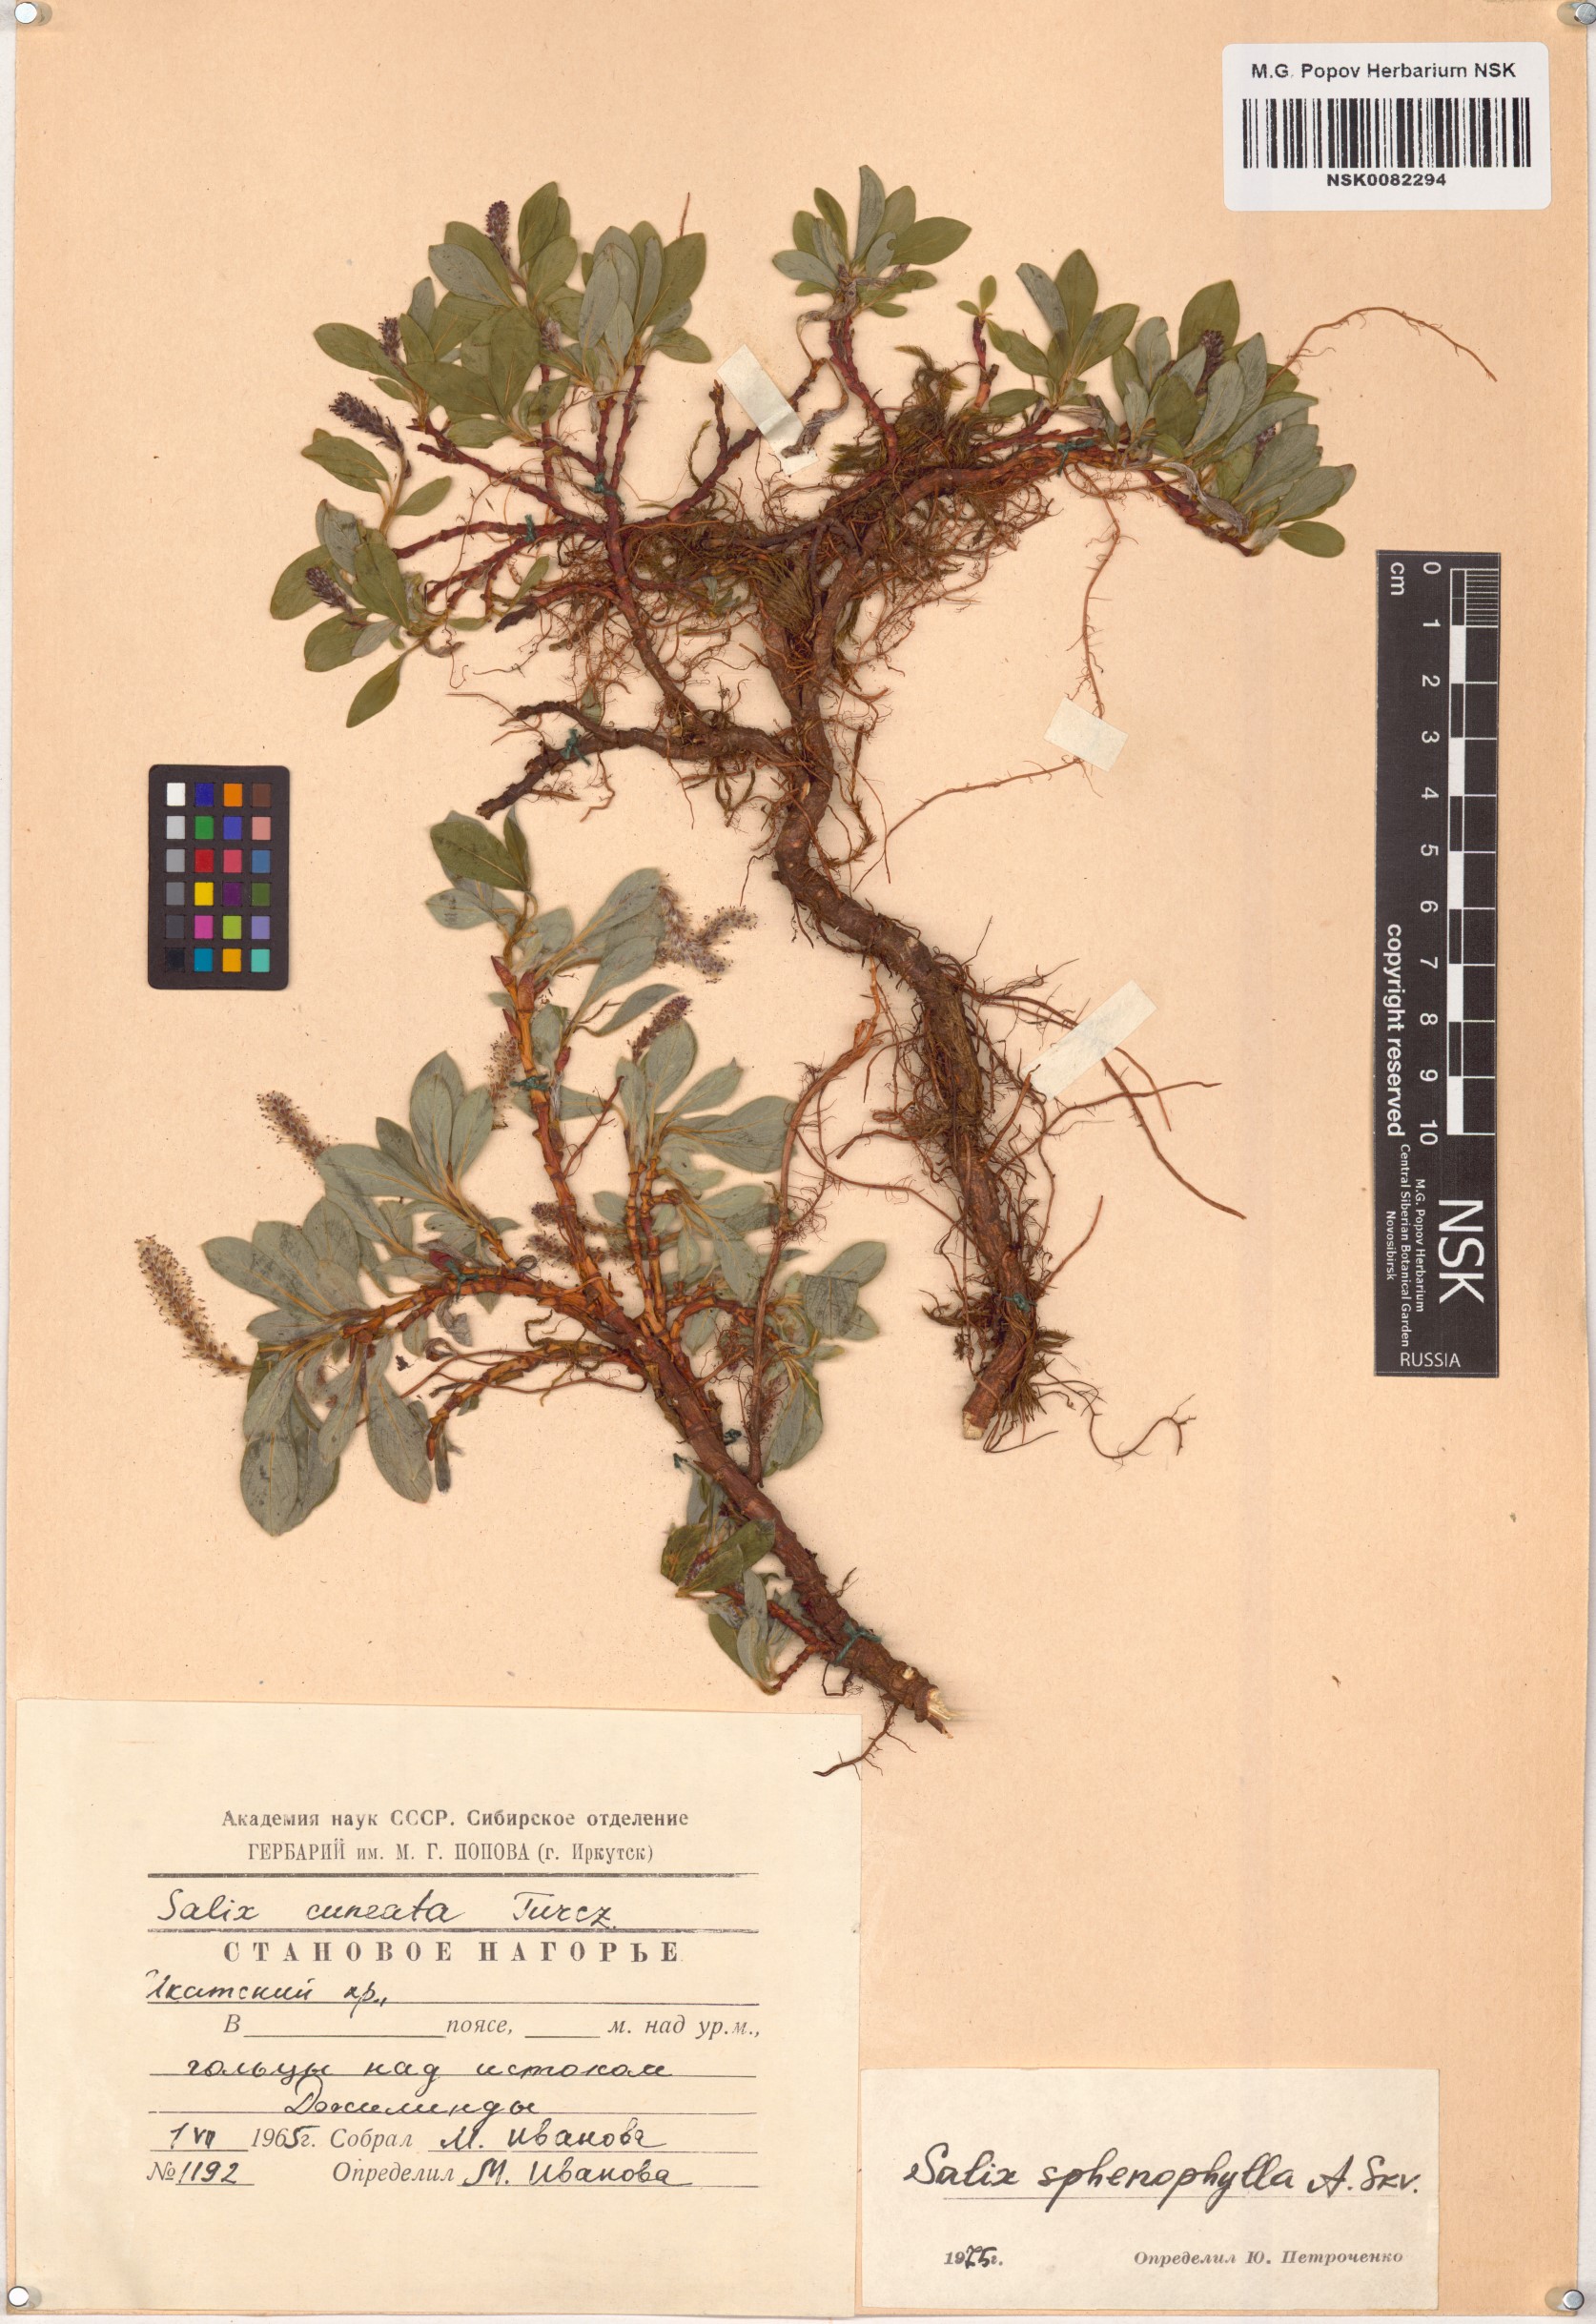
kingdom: Plantae
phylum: Tracheophyta
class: Magnoliopsida
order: Malpighiales
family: Salicaceae
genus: Salix
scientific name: Salix sphenophylla
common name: Wedge-leaved willow
